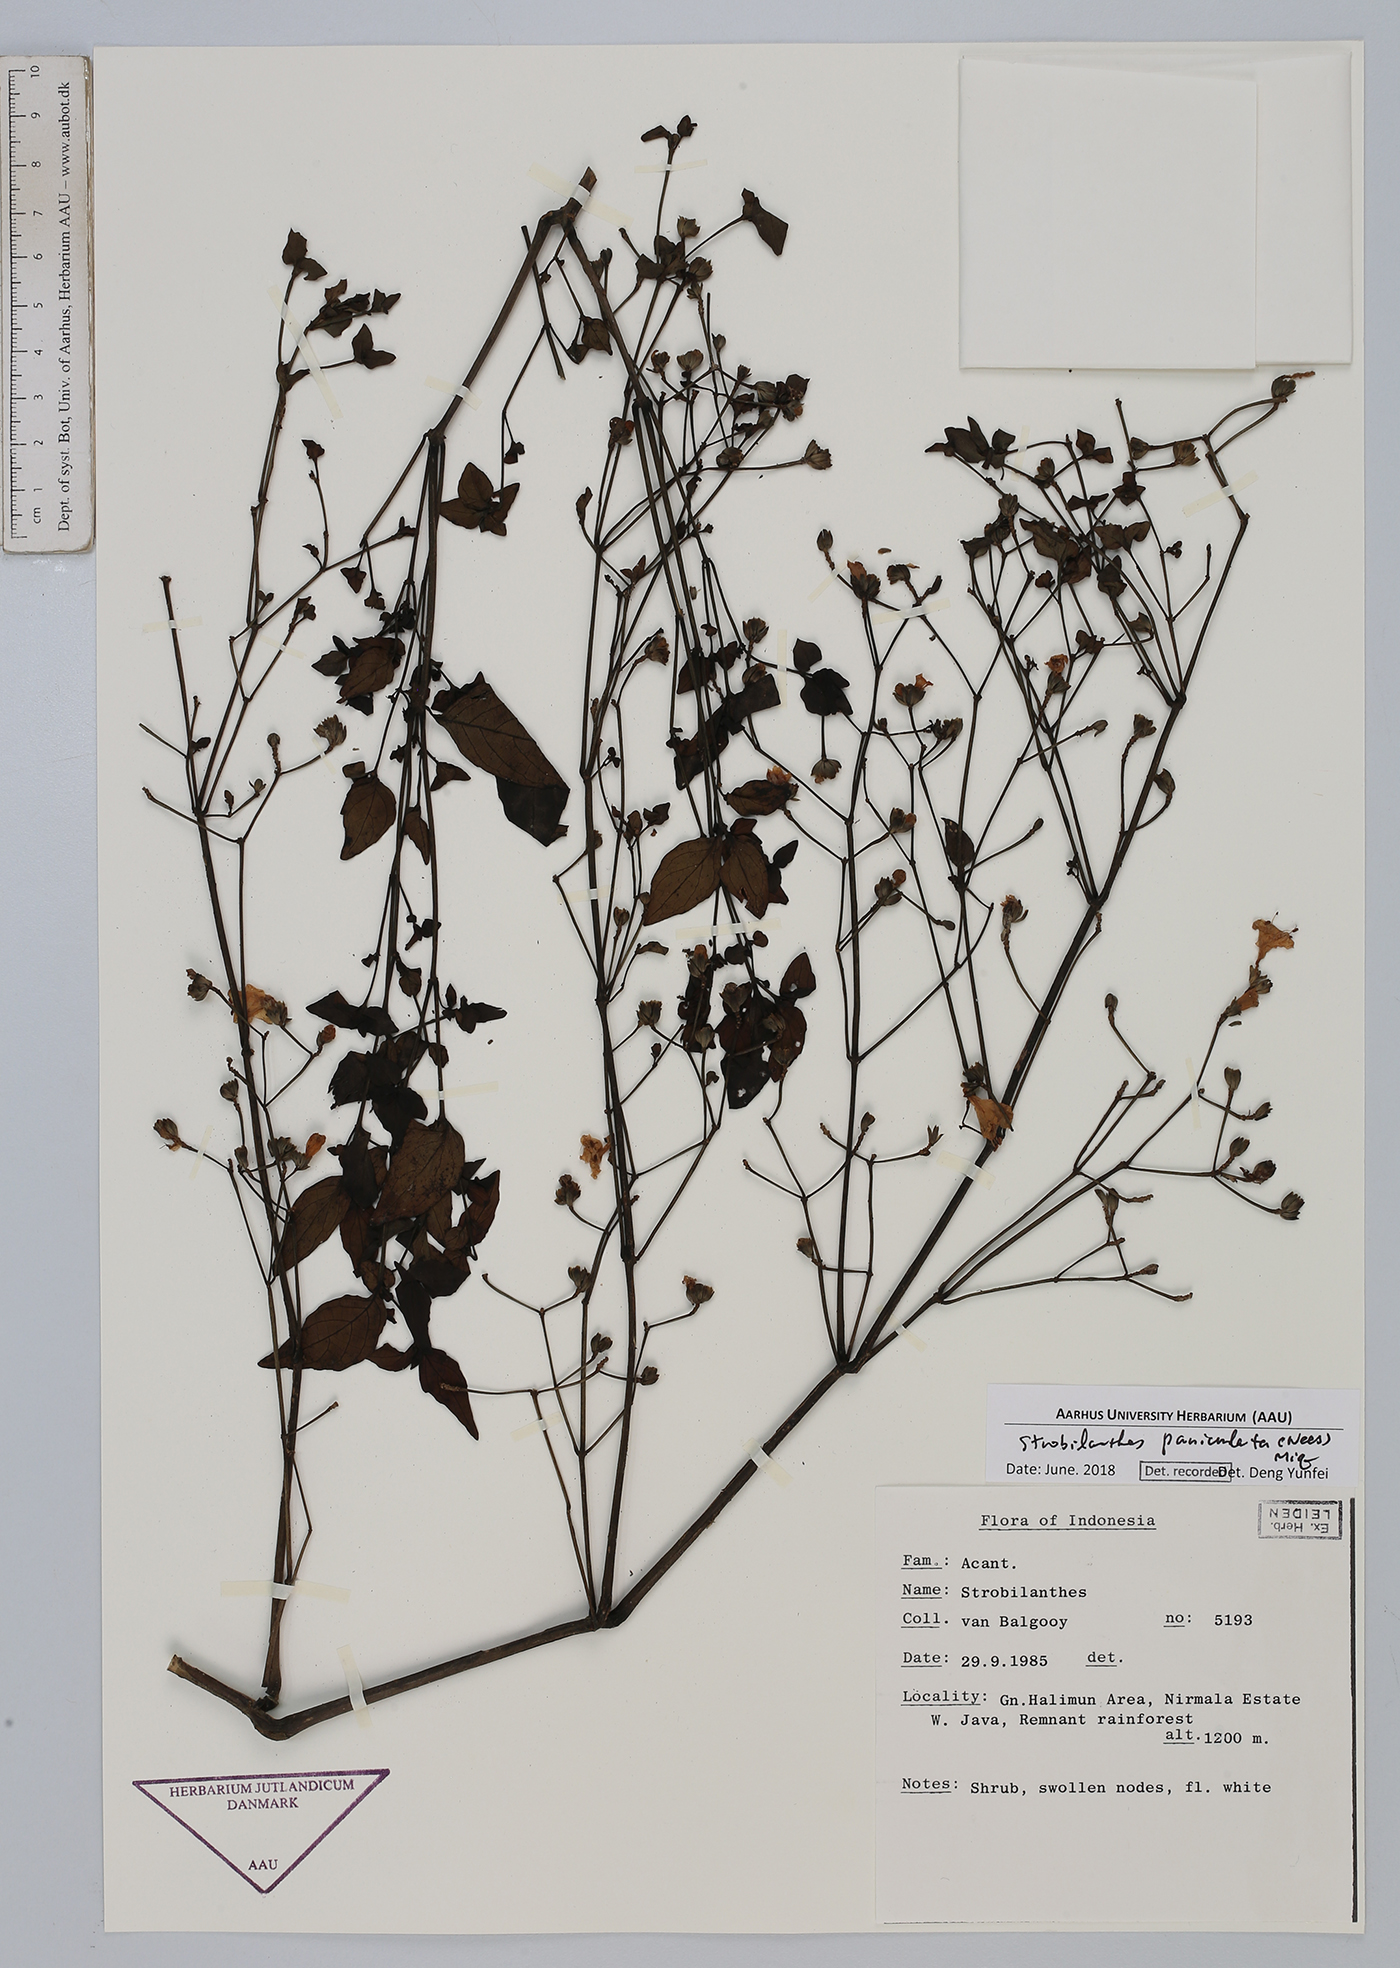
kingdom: Plantae
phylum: Tracheophyta
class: Magnoliopsida
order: Lamiales
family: Acanthaceae
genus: Strobilanthes
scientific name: Strobilanthes paniculata
